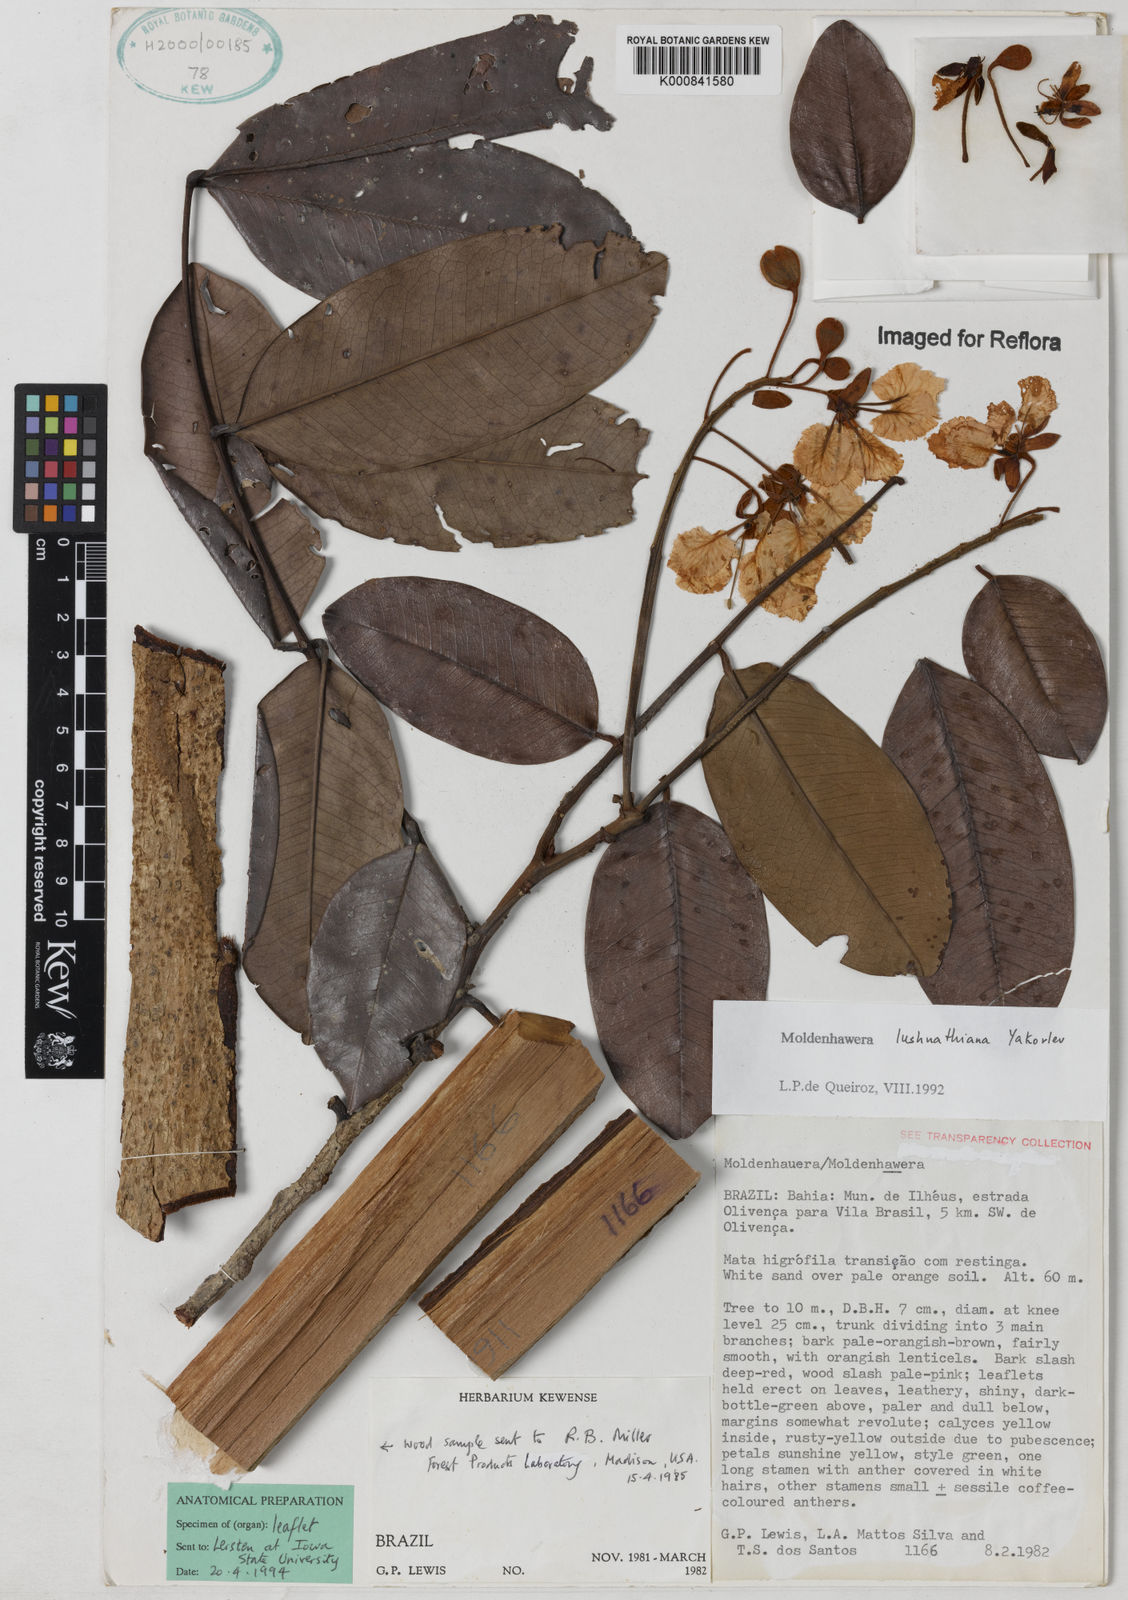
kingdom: Plantae
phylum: Tracheophyta
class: Magnoliopsida
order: Fabales
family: Fabaceae
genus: Moldenhawera
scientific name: Moldenhawera lushnathiana
